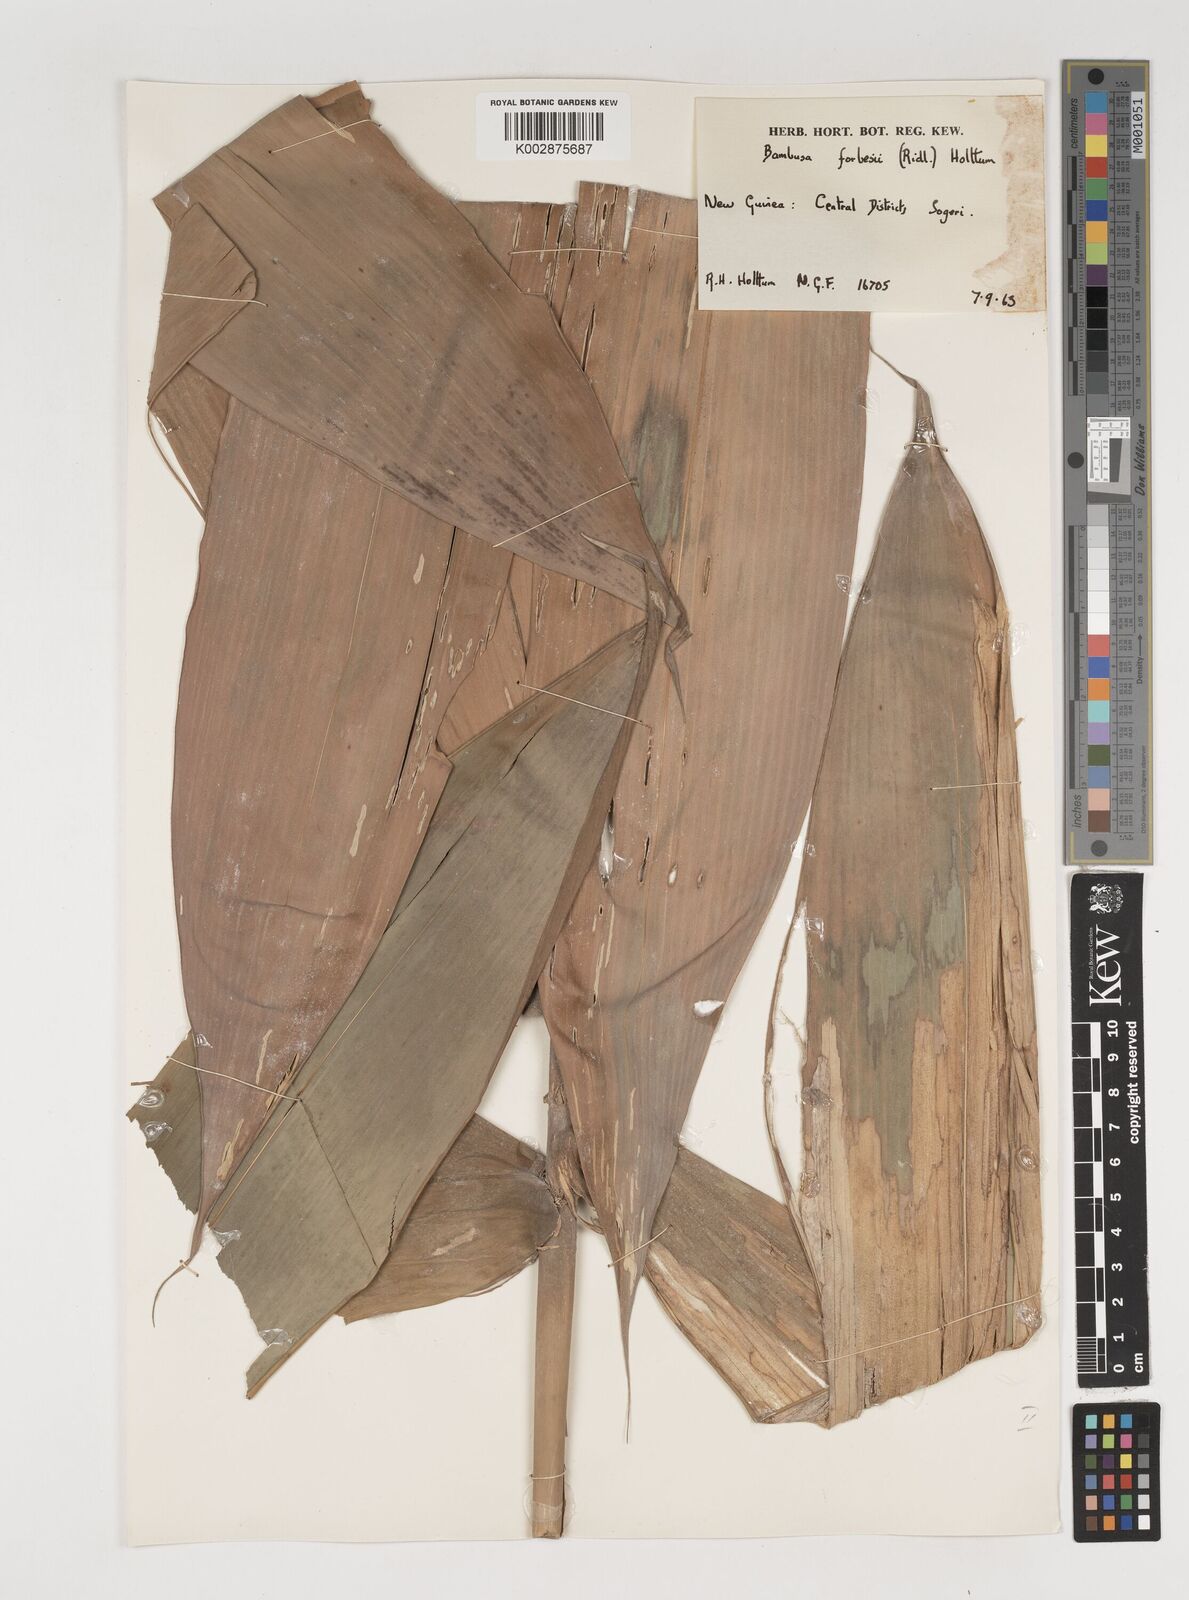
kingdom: Plantae
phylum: Tracheophyta
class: Liliopsida
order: Poales
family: Poaceae
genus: Neololeba
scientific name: Neololeba atra
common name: Cape bamboo
